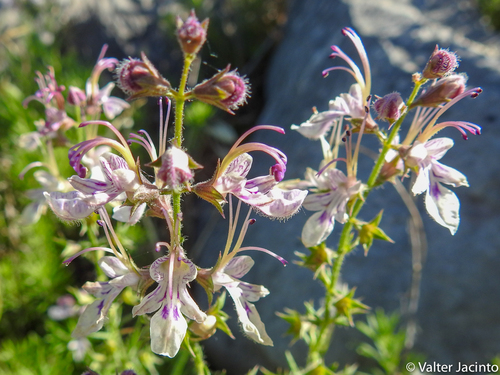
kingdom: Plantae
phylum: Tracheophyta
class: Magnoliopsida
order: Lamiales
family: Lamiaceae
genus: Teucrium
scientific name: Teucrium pseudochamaepitys
